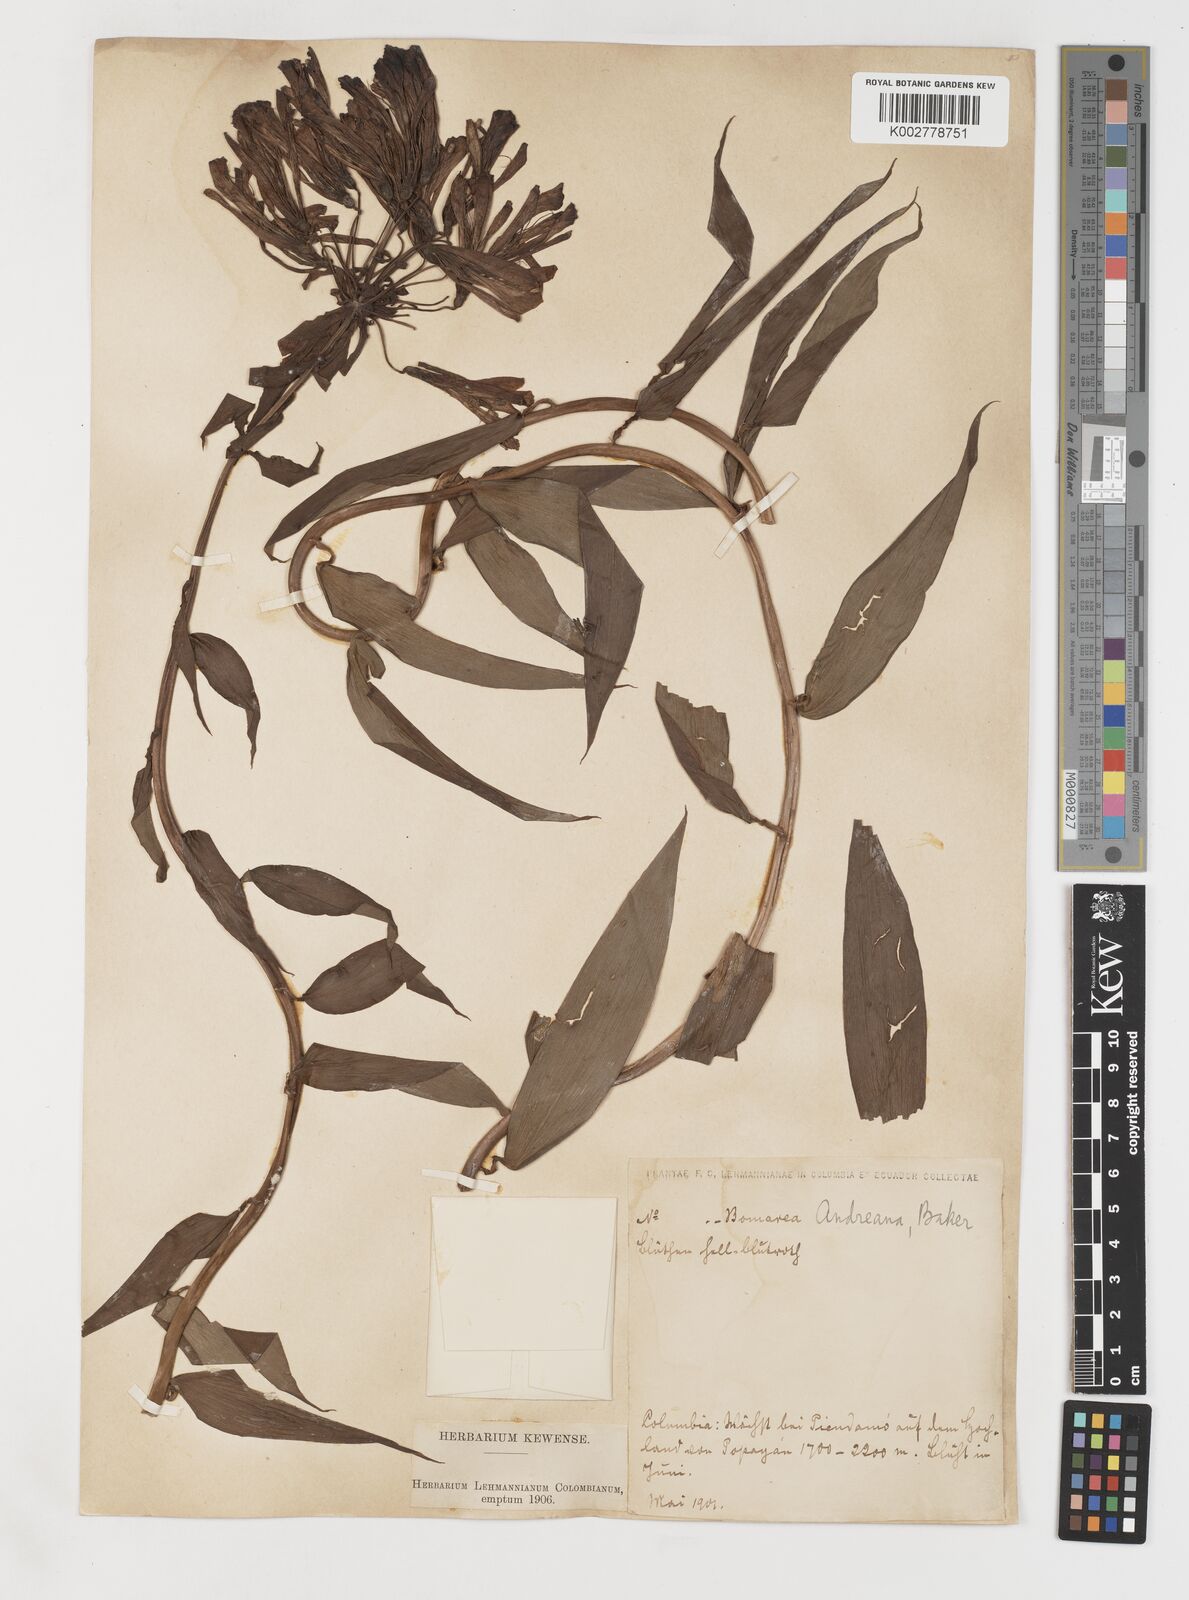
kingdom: Plantae
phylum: Tracheophyta
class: Liliopsida
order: Liliales
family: Alstroemeriaceae
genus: Bomarea
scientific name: Bomarea andreana
